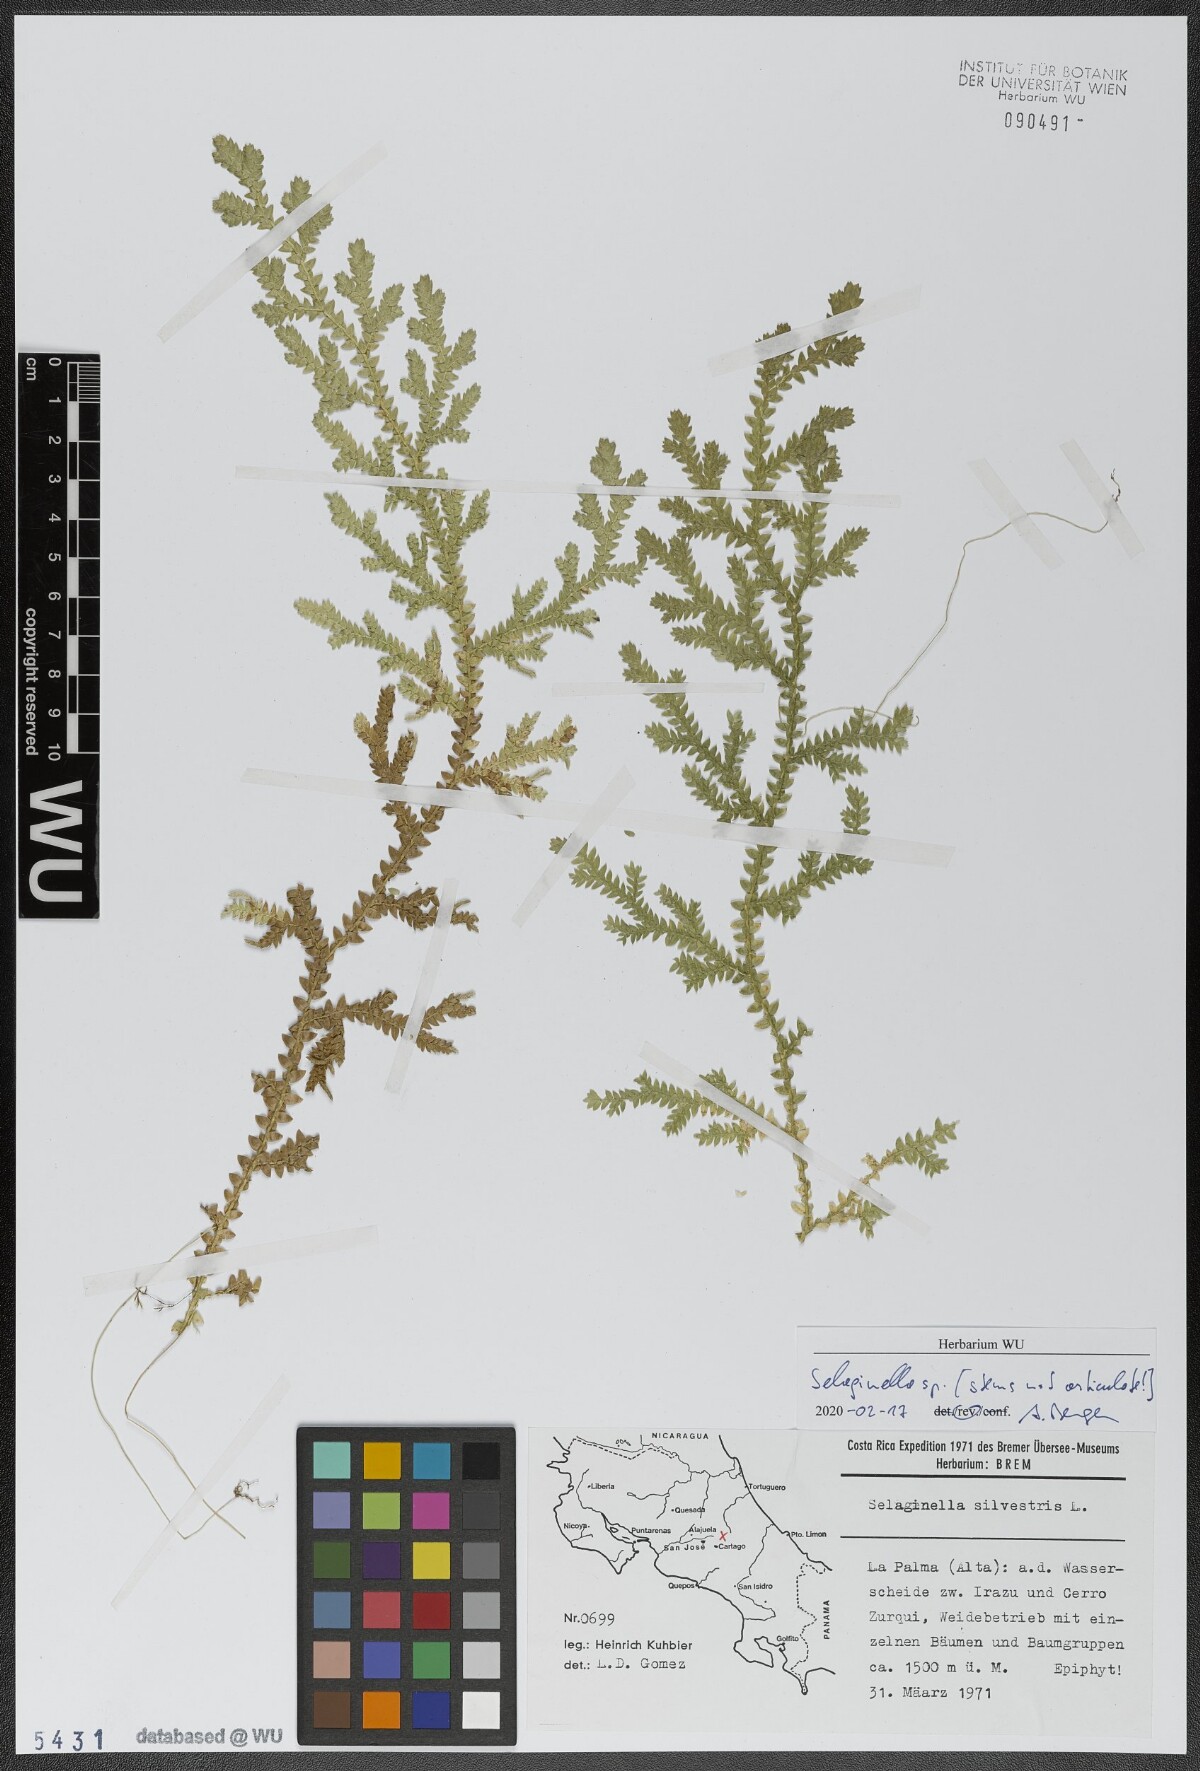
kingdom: Plantae
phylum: Tracheophyta
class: Lycopodiopsida
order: Selaginellales
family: Selaginellaceae
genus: Selaginella
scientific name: Selaginella
